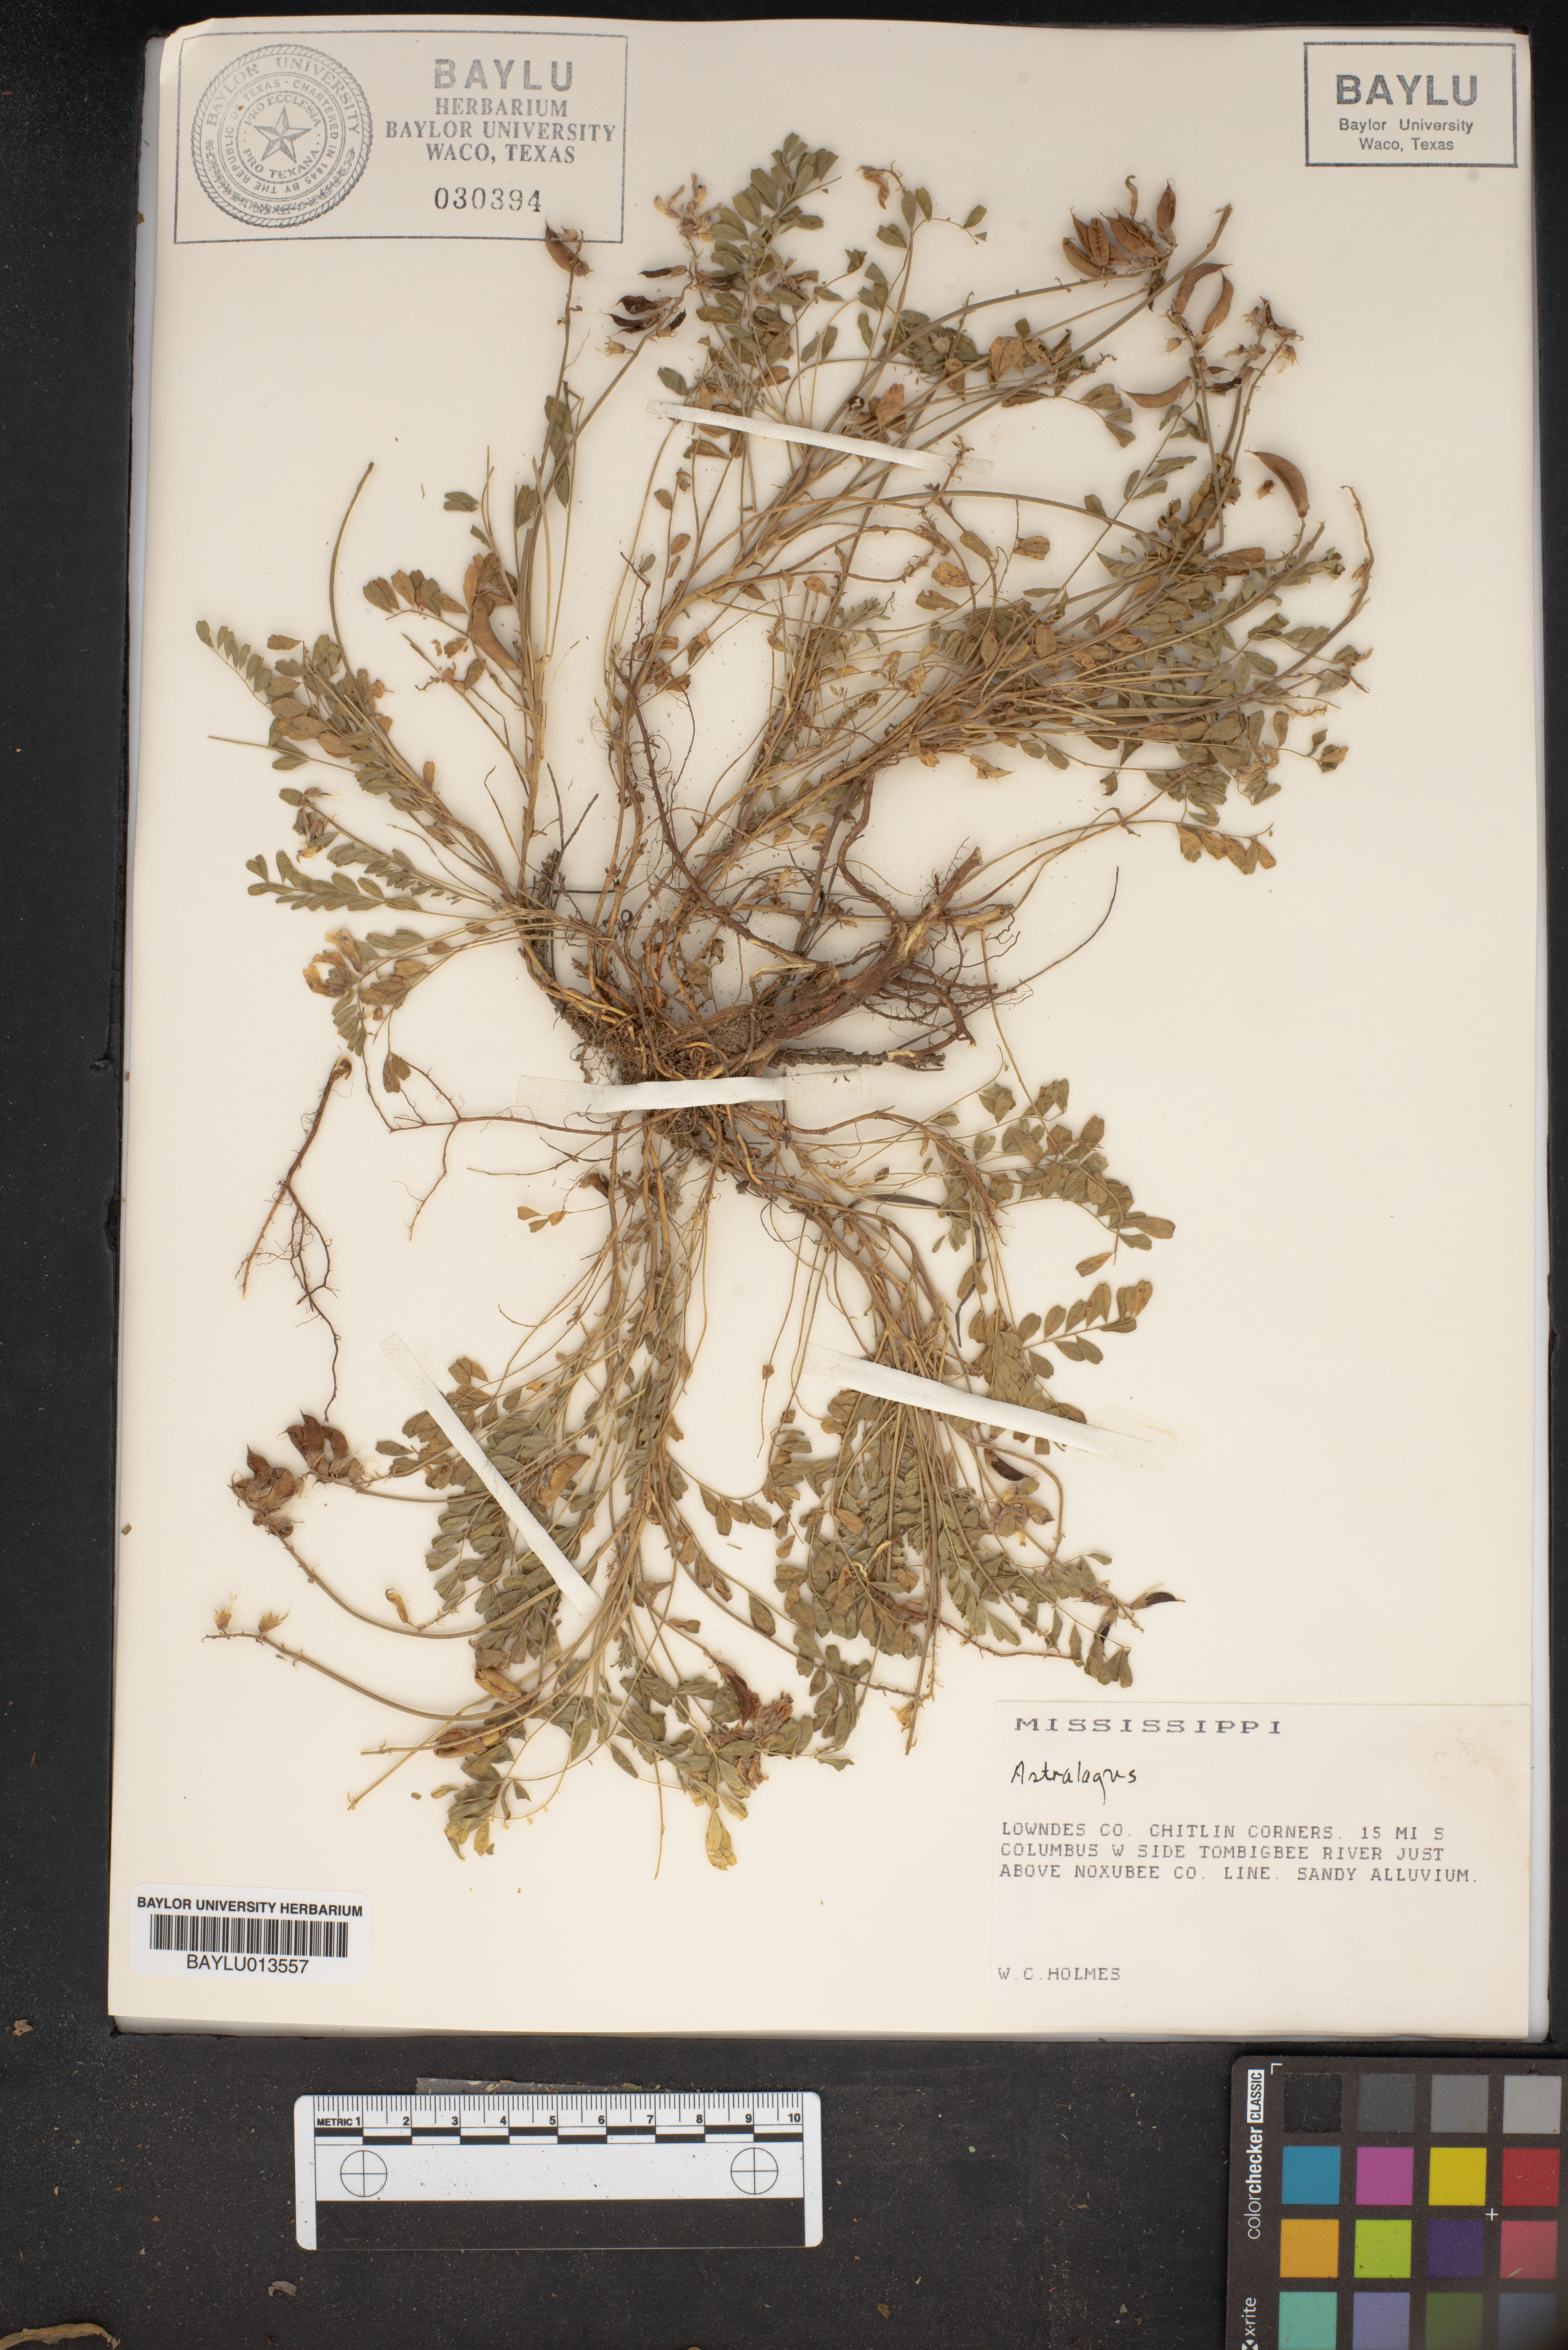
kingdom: Plantae
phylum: Tracheophyta
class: Magnoliopsida
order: Fabales
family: Fabaceae
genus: Astragalus
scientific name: Astragalus
